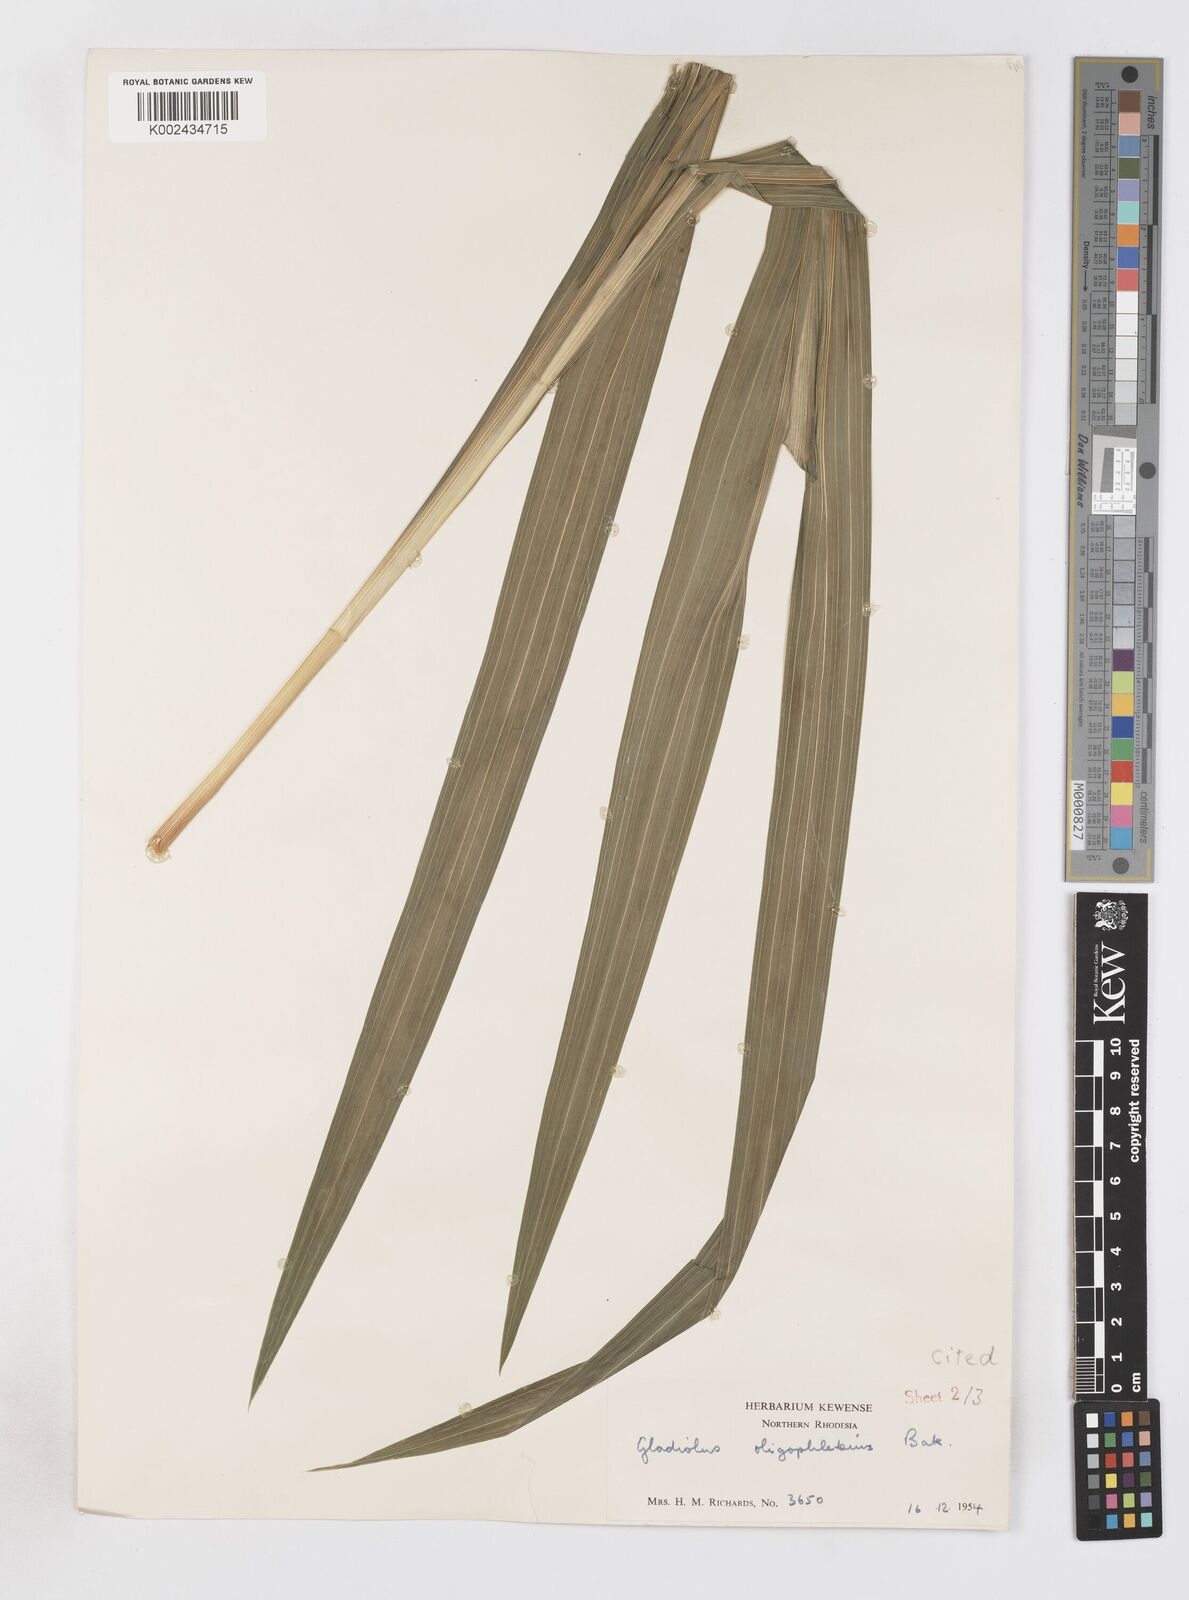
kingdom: Plantae
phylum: Tracheophyta
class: Liliopsida
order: Asparagales
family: Iridaceae
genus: Gladiolus
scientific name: Gladiolus oligophlebius
